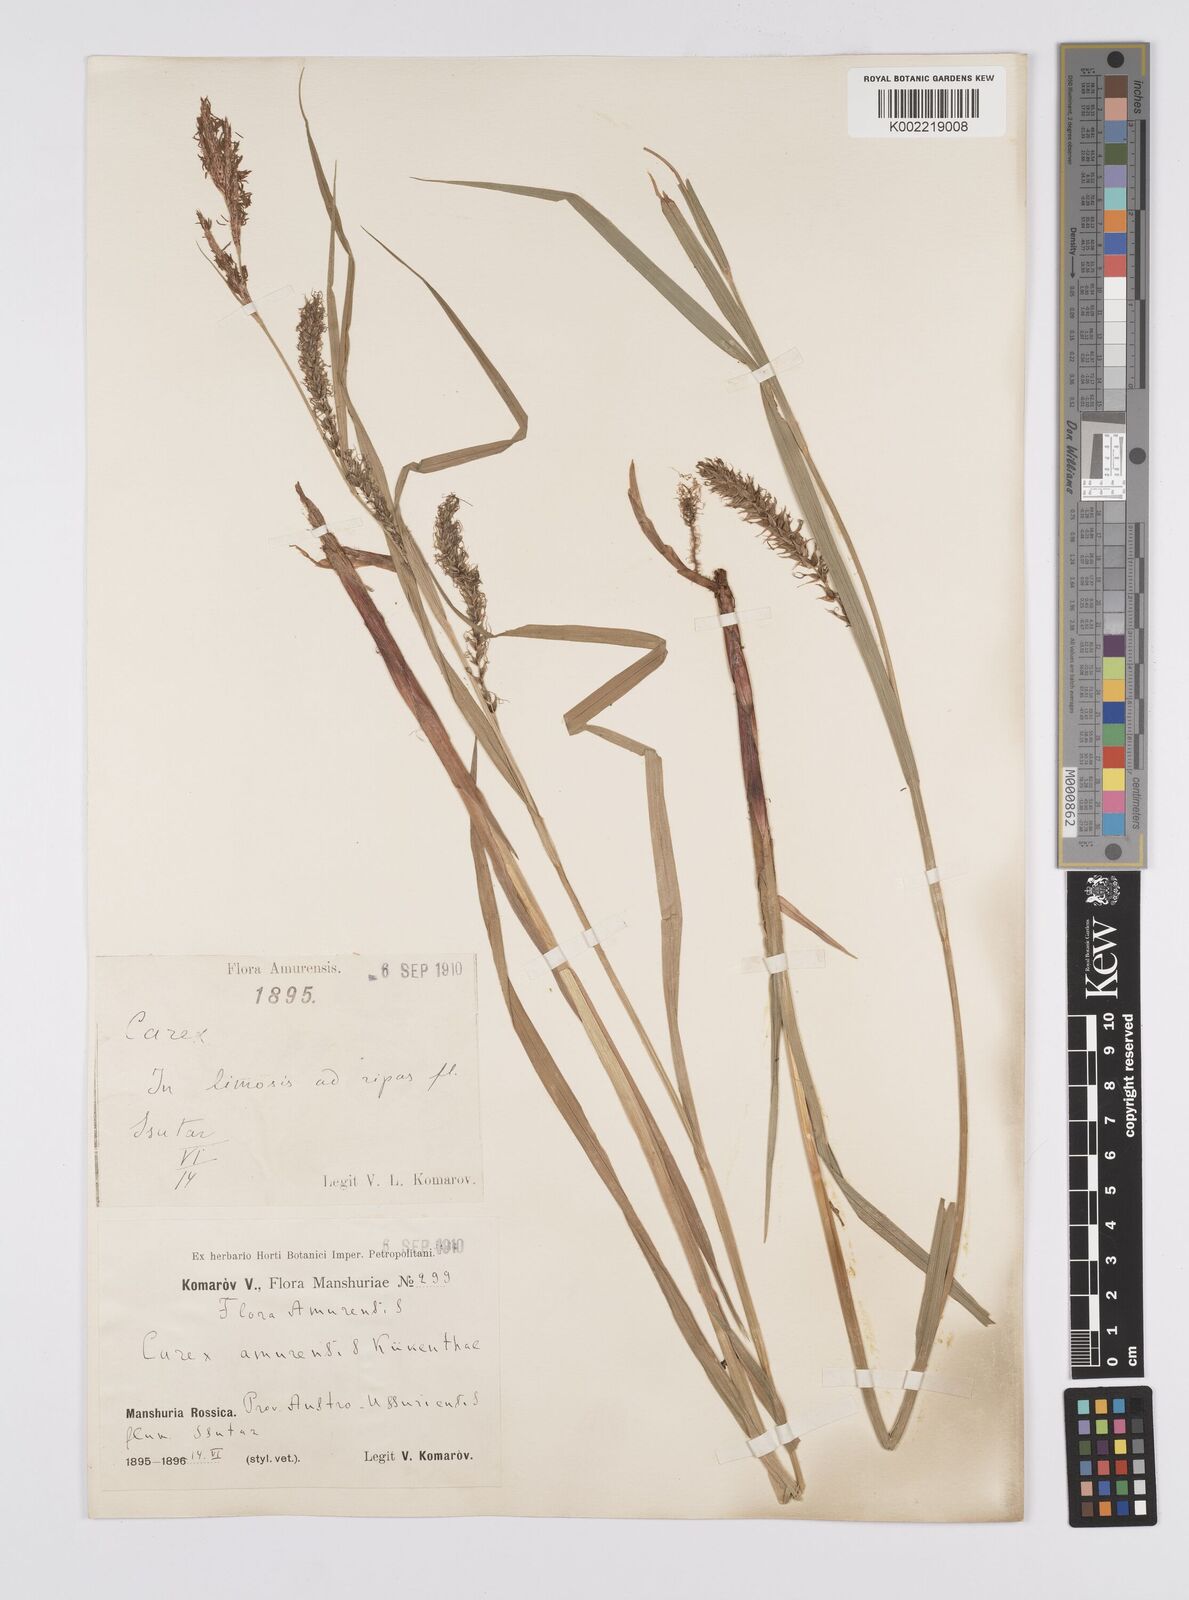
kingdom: Plantae
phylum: Tracheophyta
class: Liliopsida
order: Poales
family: Cyperaceae
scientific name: Cyperaceae
